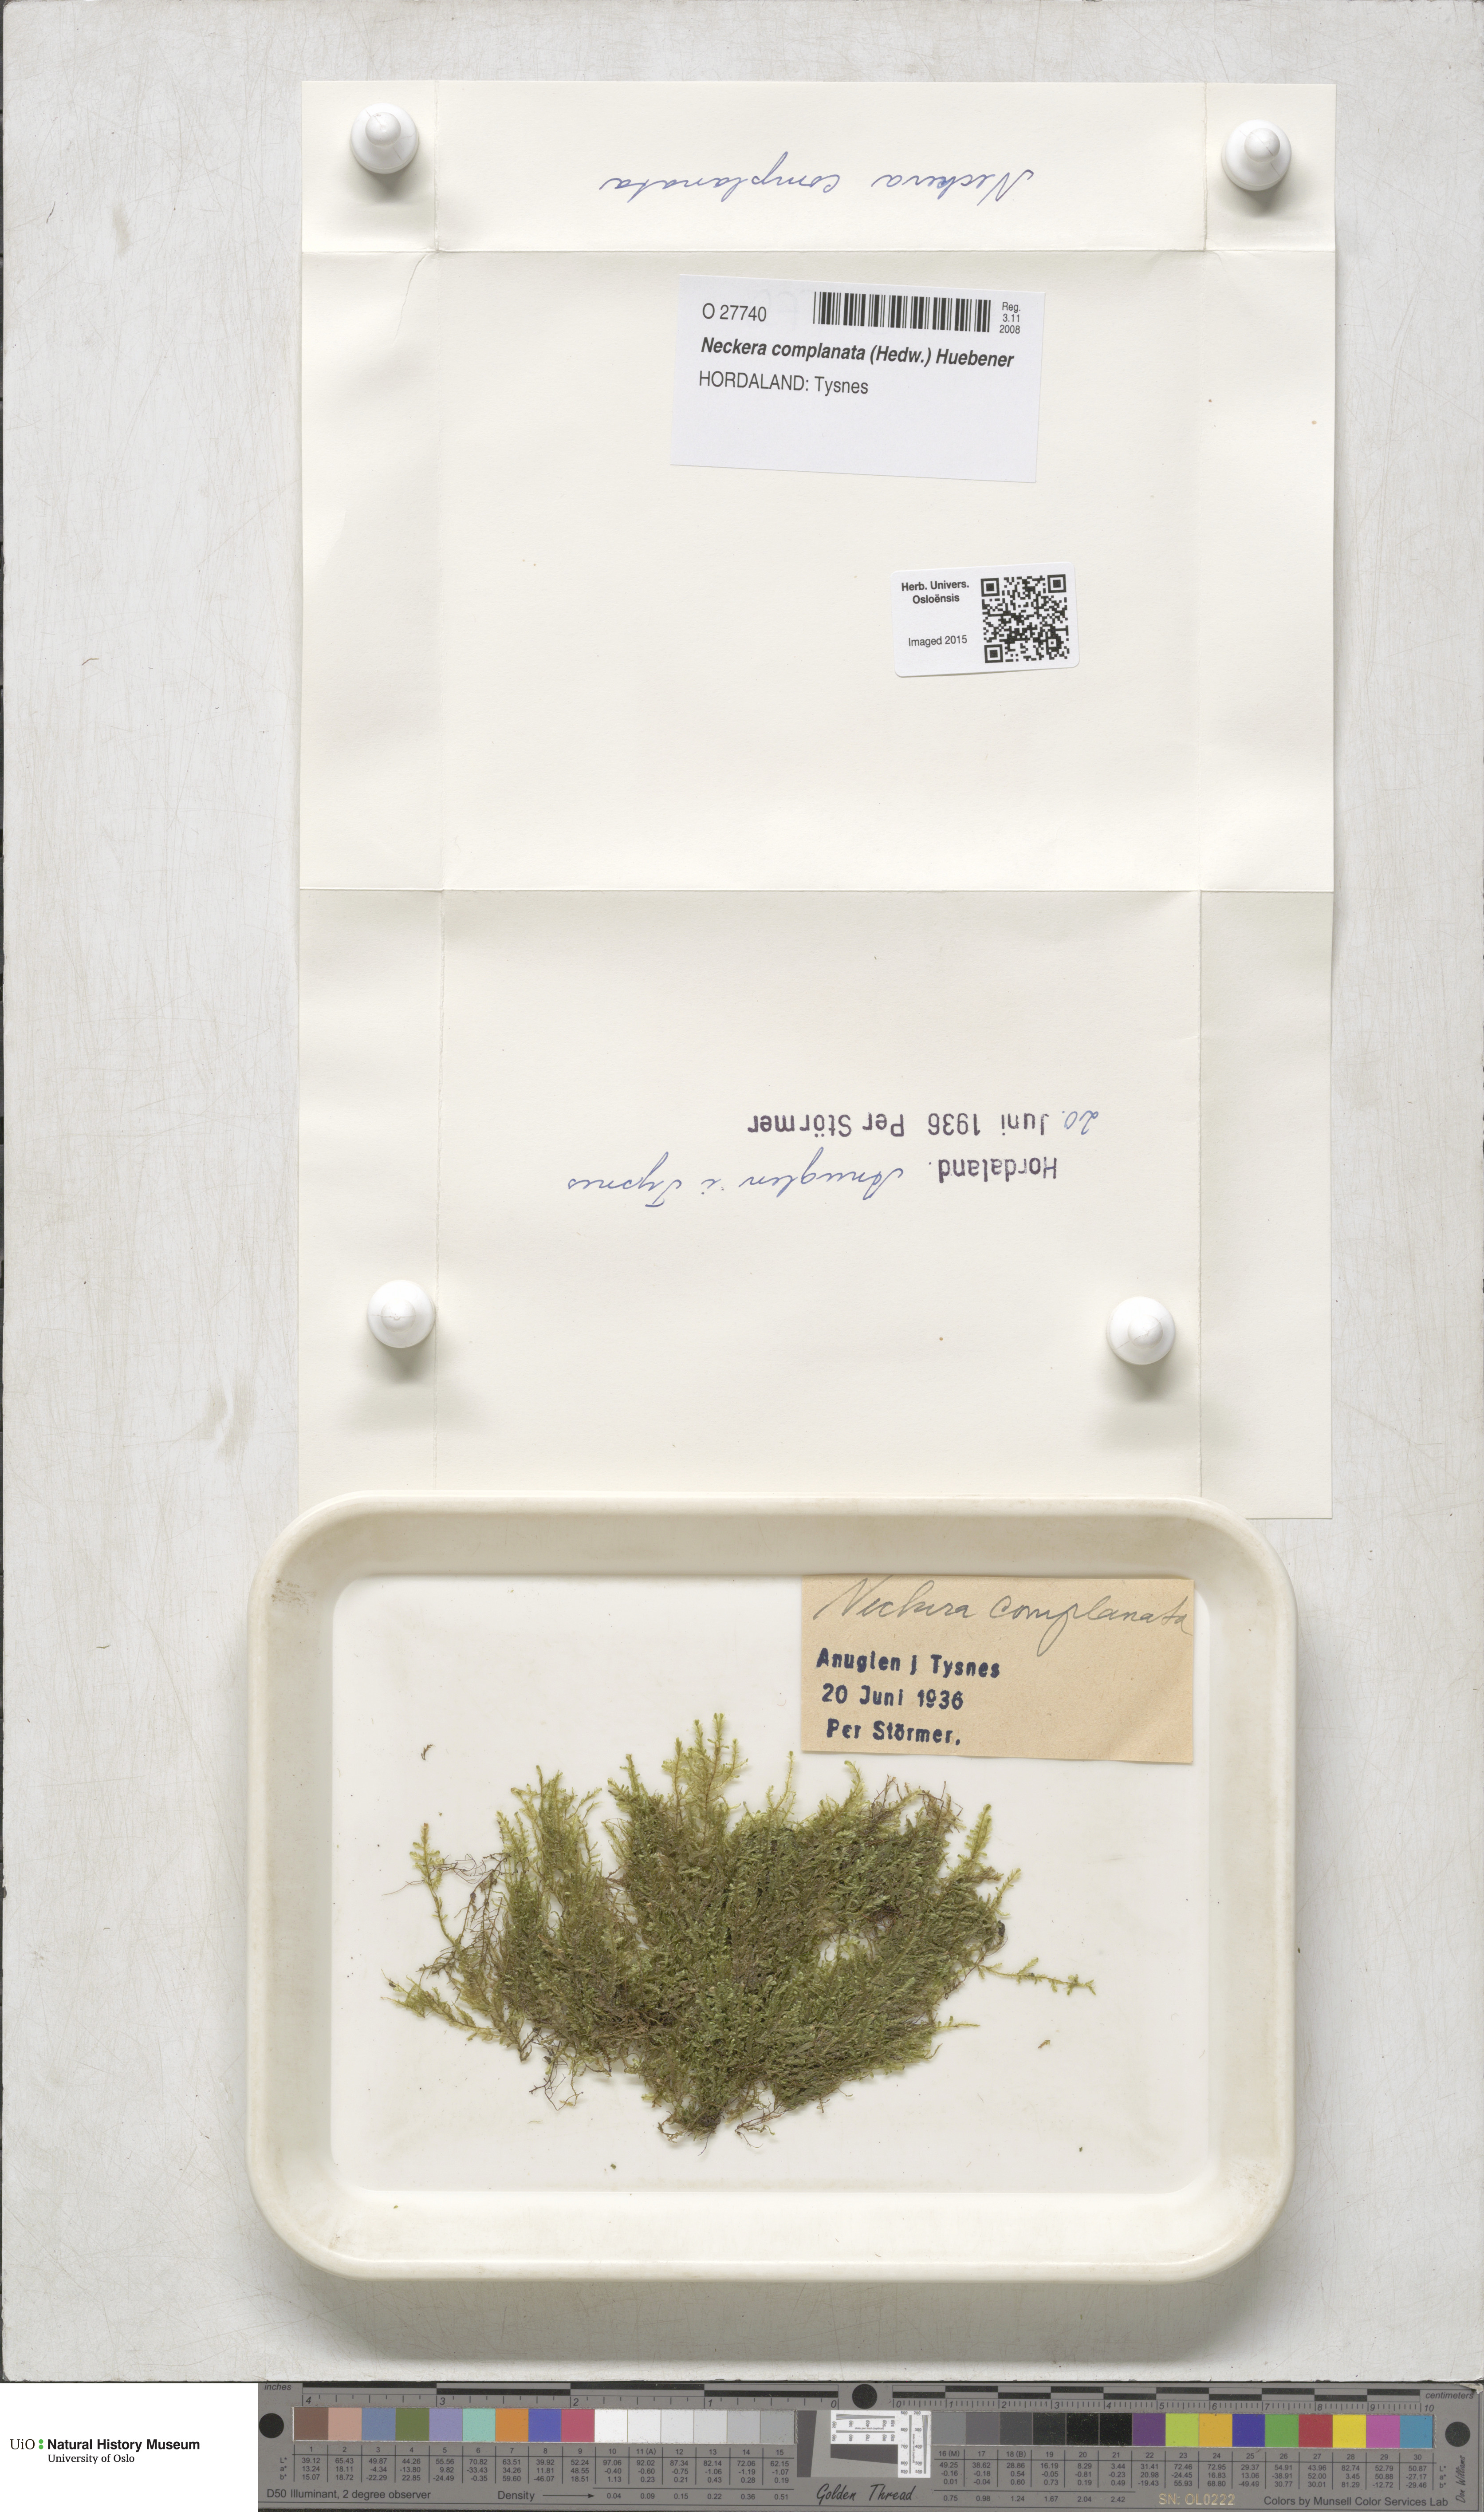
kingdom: Plantae
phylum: Bryophyta
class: Bryopsida
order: Hypnales
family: Neckeraceae
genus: Alleniella
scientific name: Alleniella complanata
